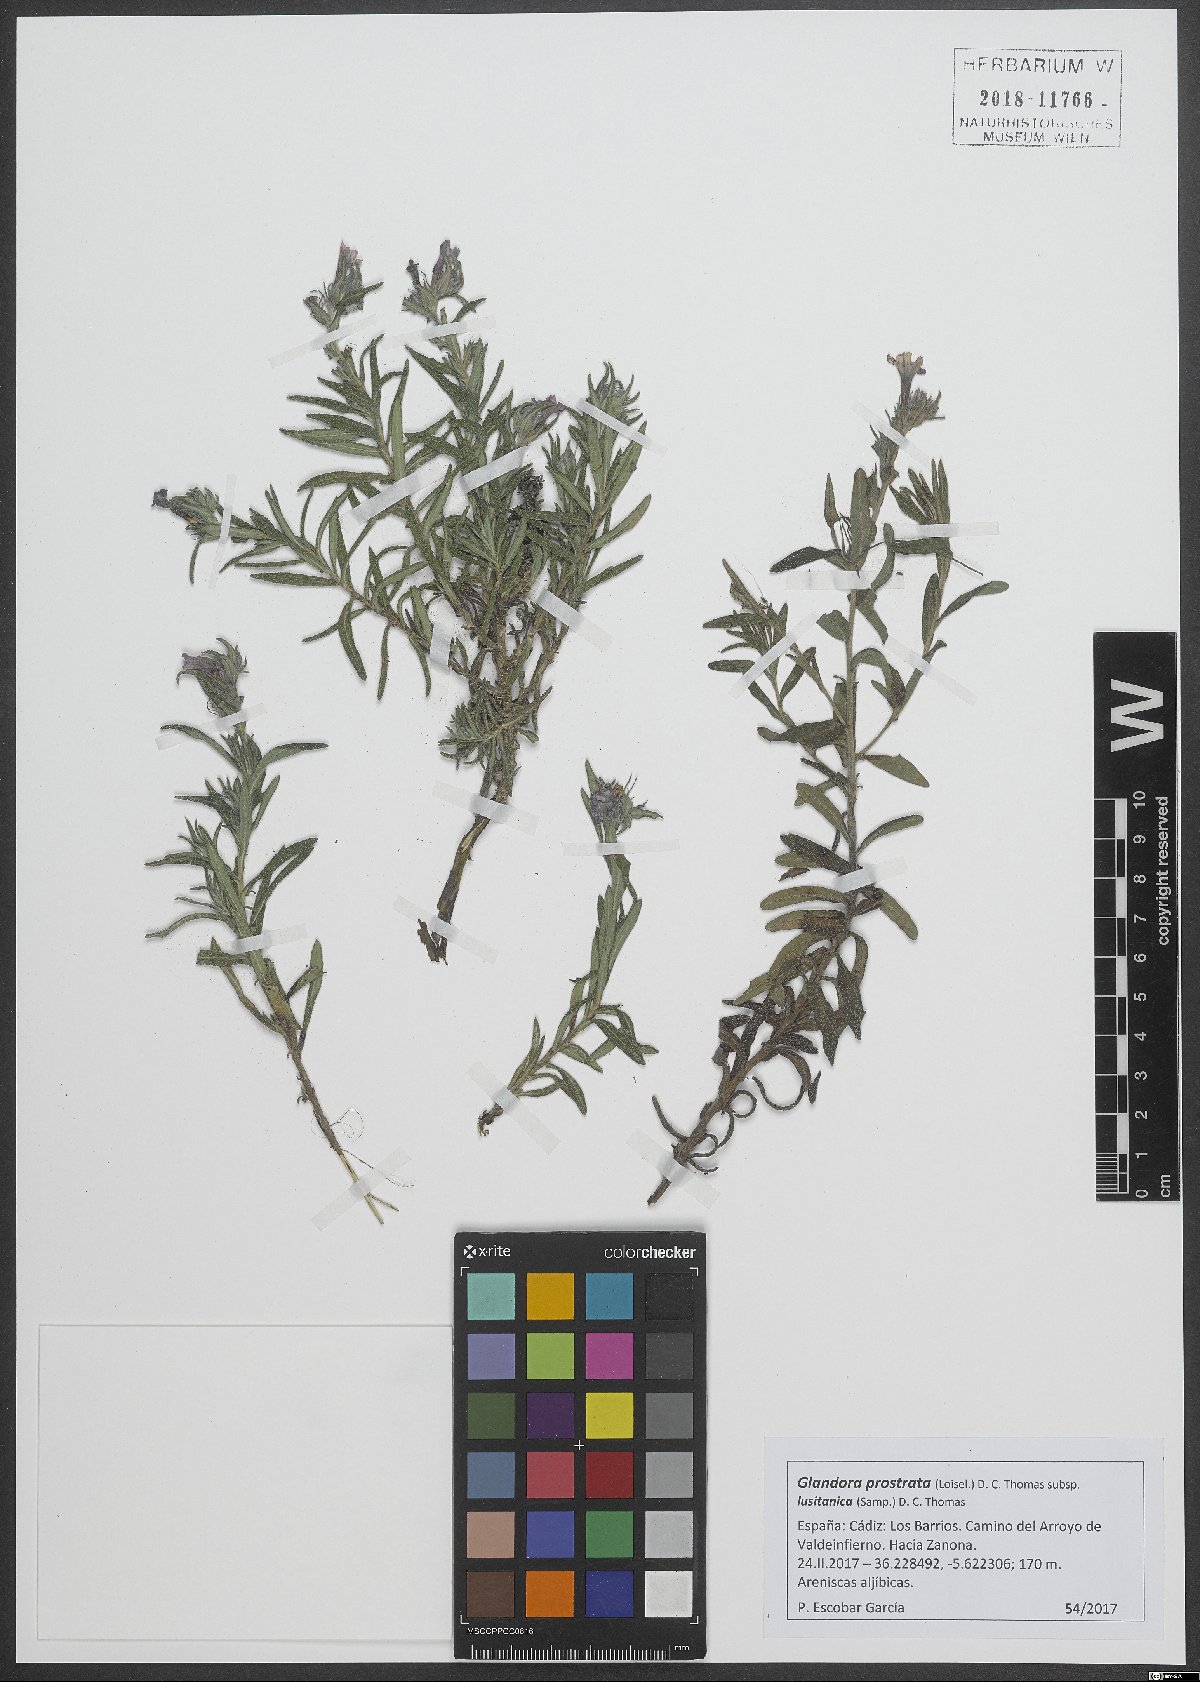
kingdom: Plantae
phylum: Tracheophyta
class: Magnoliopsida
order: Boraginales
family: Boraginaceae
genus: Glandora
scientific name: Glandora prostrata
